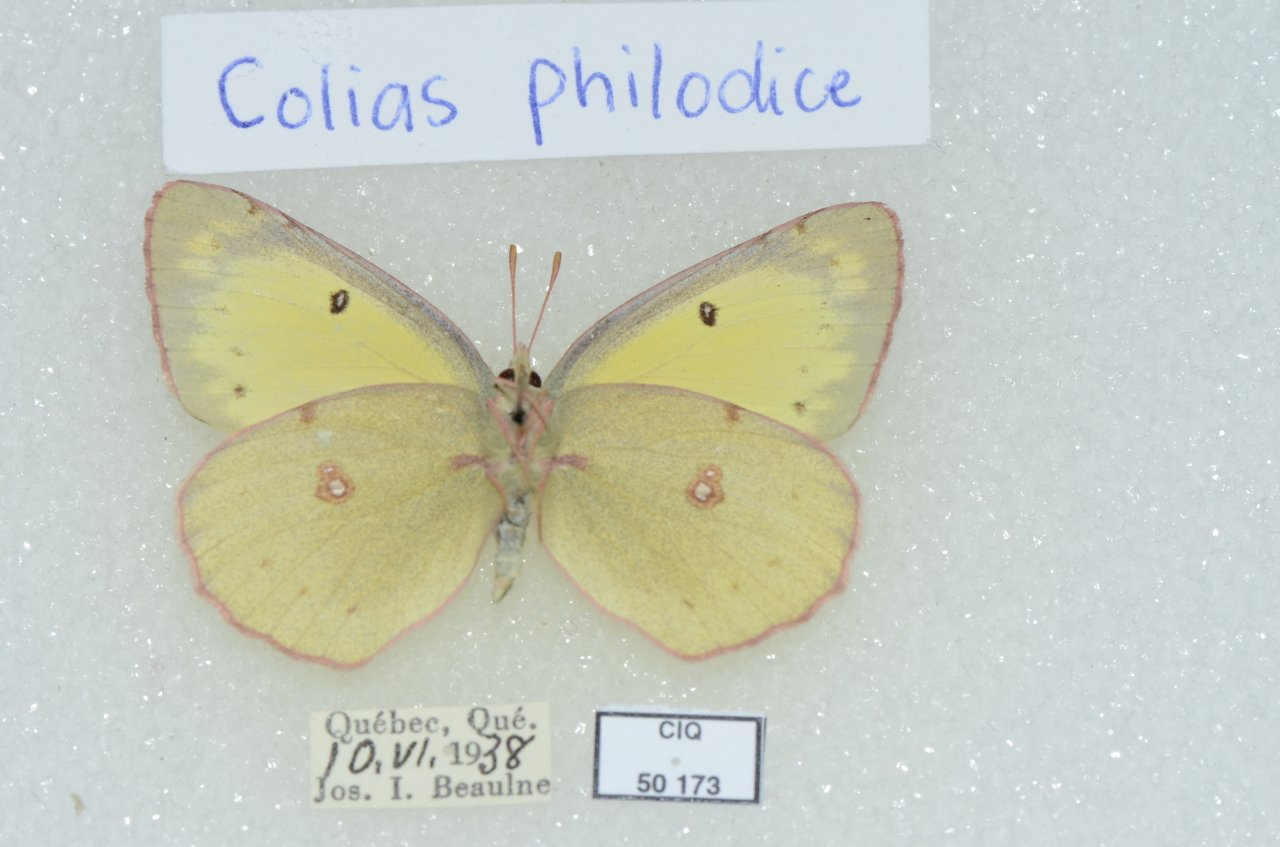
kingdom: Animalia
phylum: Arthropoda
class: Insecta
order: Lepidoptera
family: Pieridae
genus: Colias
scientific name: Colias philodice
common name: Clouded Sulphur
